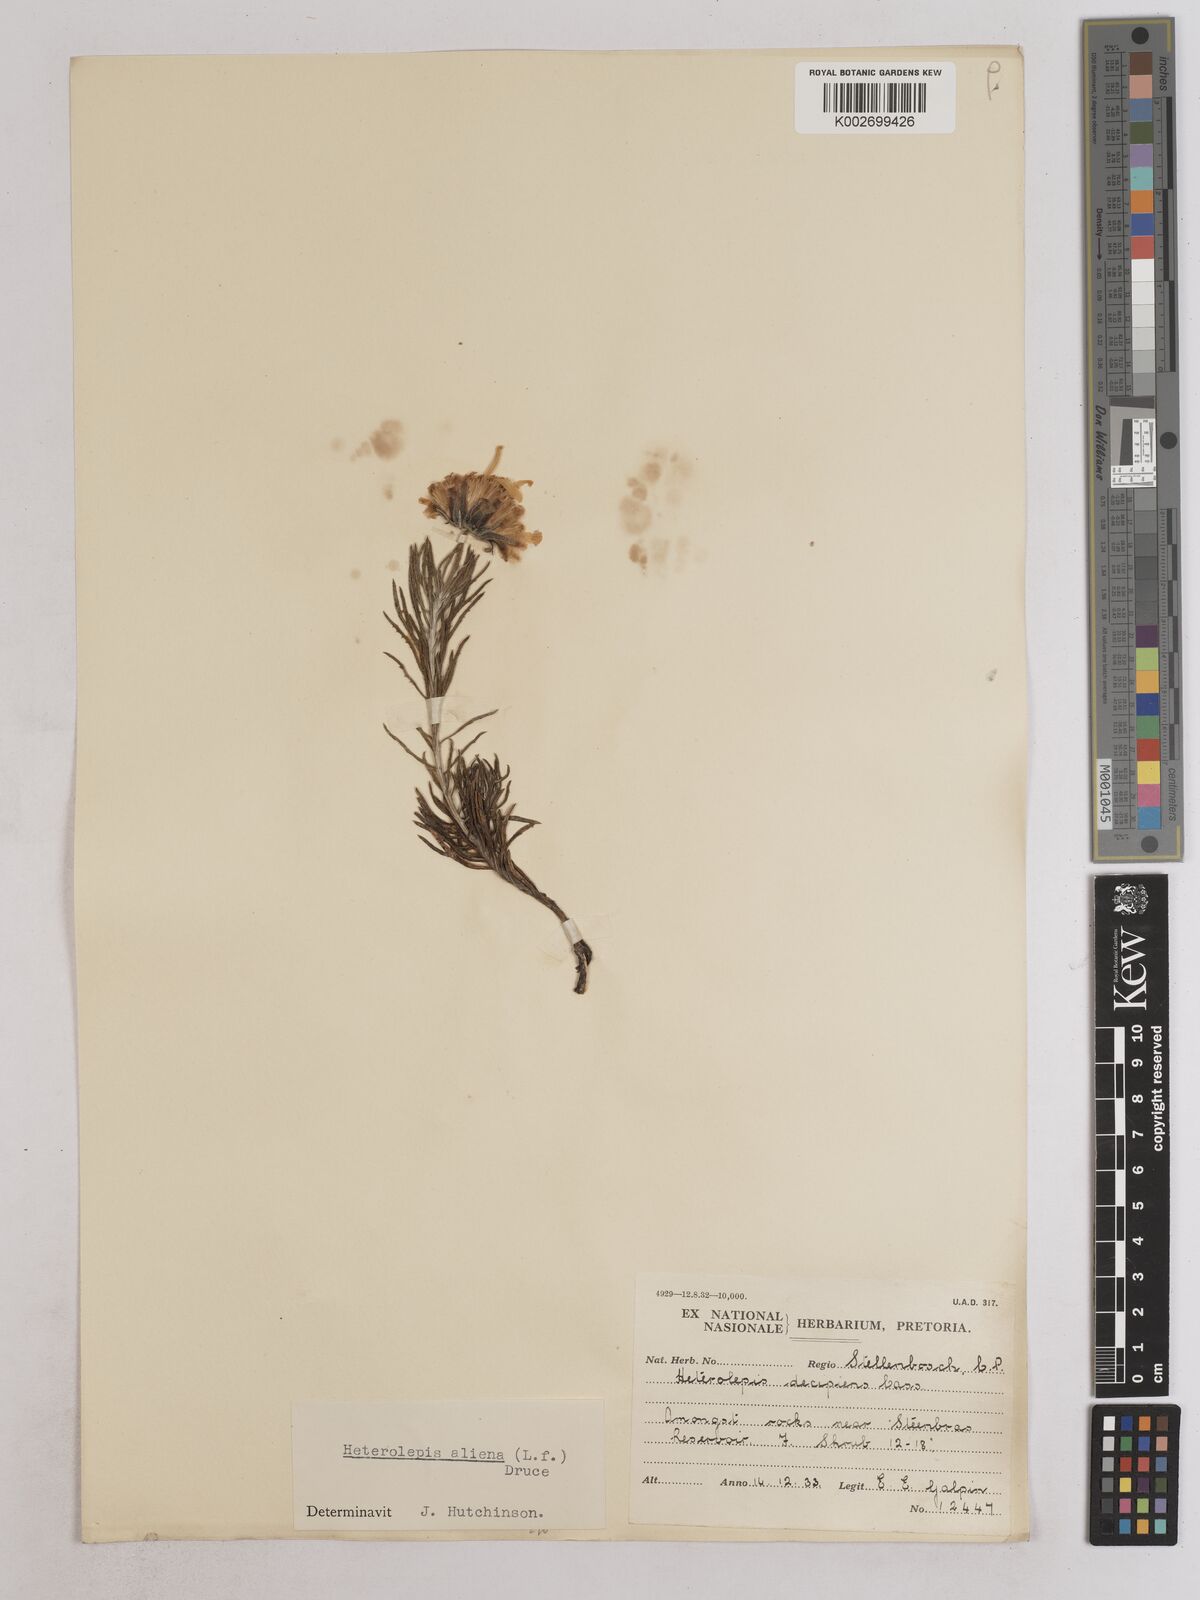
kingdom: Plantae
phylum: Tracheophyta
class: Magnoliopsida
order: Asterales
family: Asteraceae
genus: Heterolepis
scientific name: Heterolepis aliena
